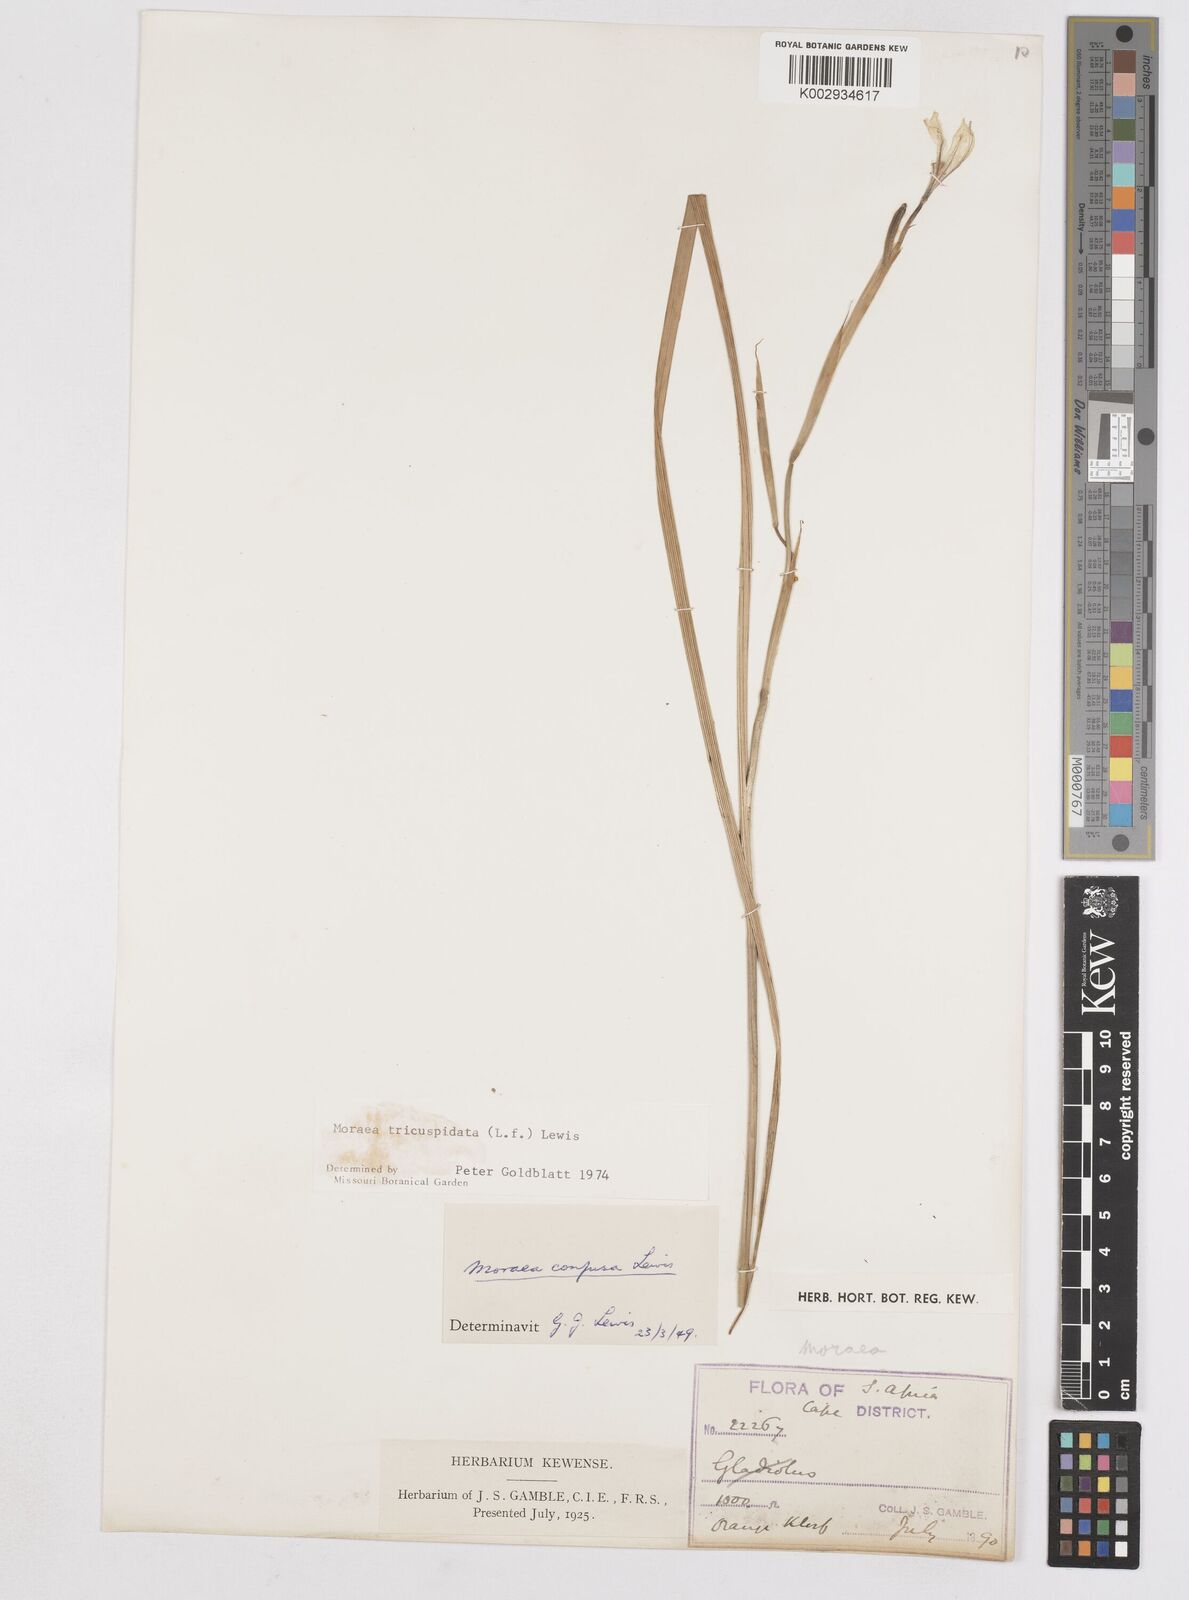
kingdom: Plantae
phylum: Tracheophyta
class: Liliopsida
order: Asparagales
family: Iridaceae
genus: Moraea
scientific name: Moraea tricuspidata
